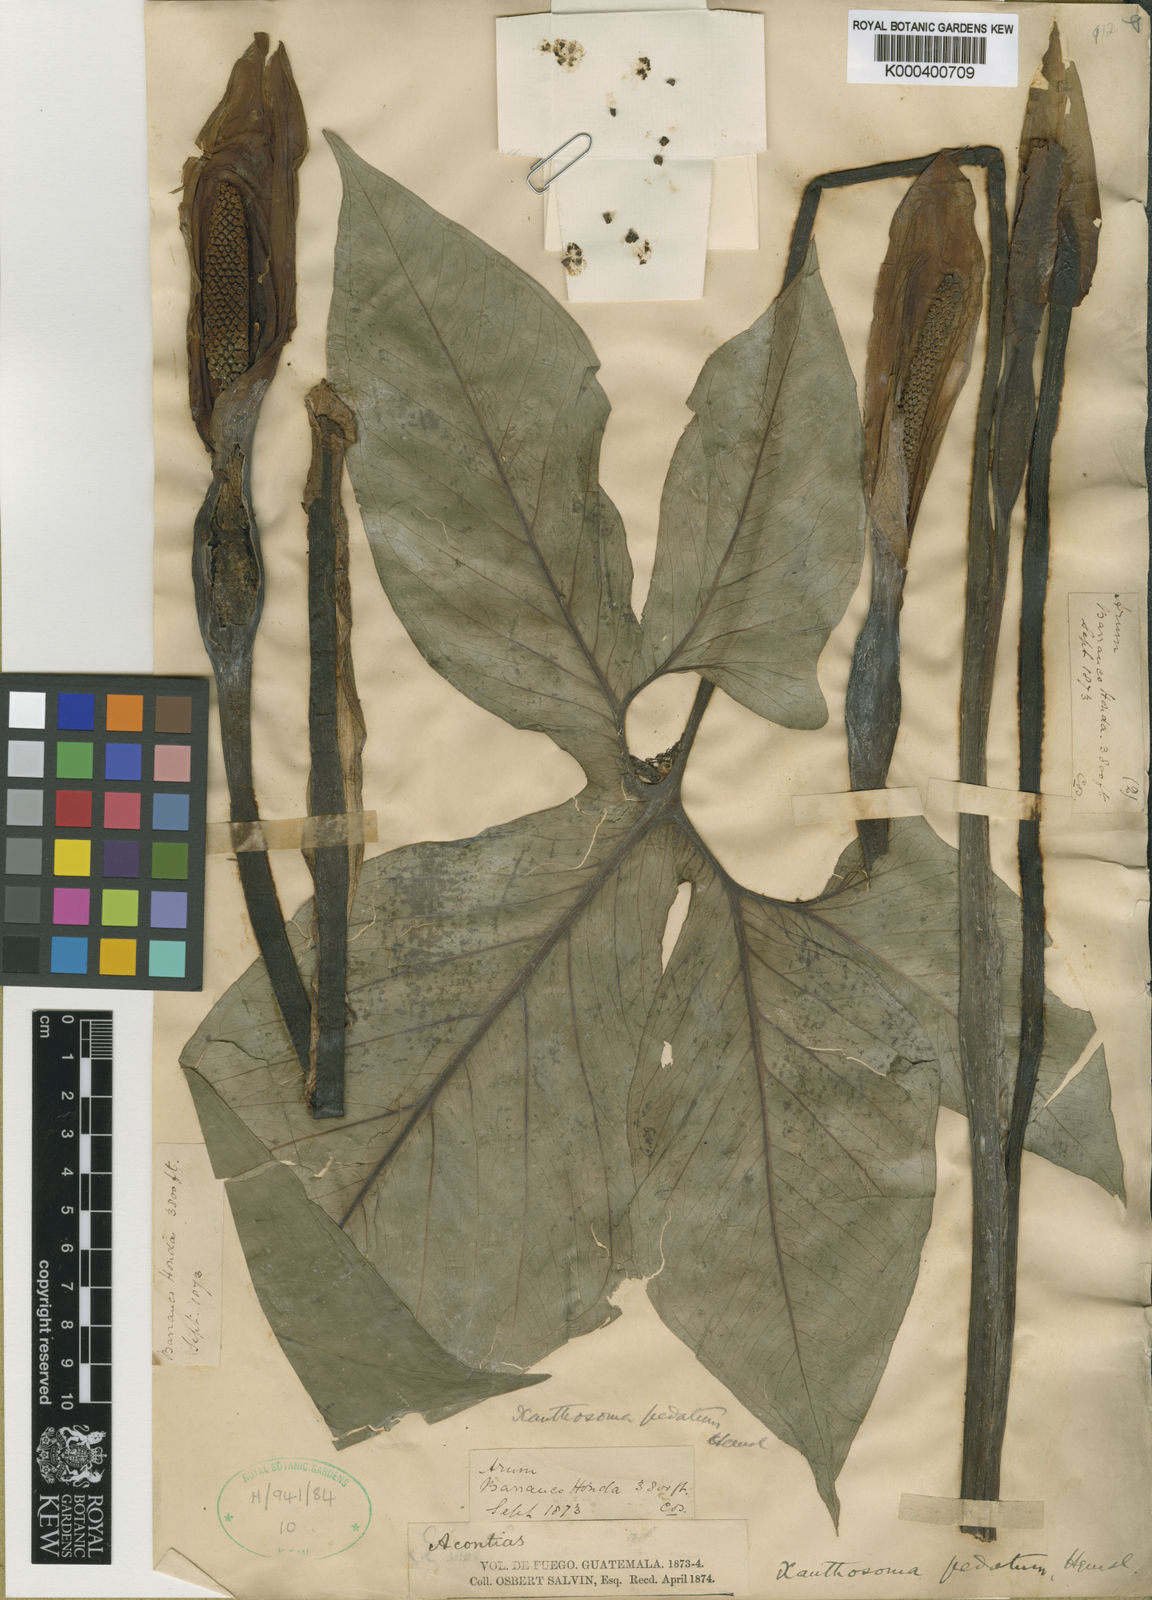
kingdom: Plantae
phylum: Tracheophyta
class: Liliopsida
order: Alismatales
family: Araceae
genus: Xanthosoma
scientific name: Xanthosoma wendlandii
